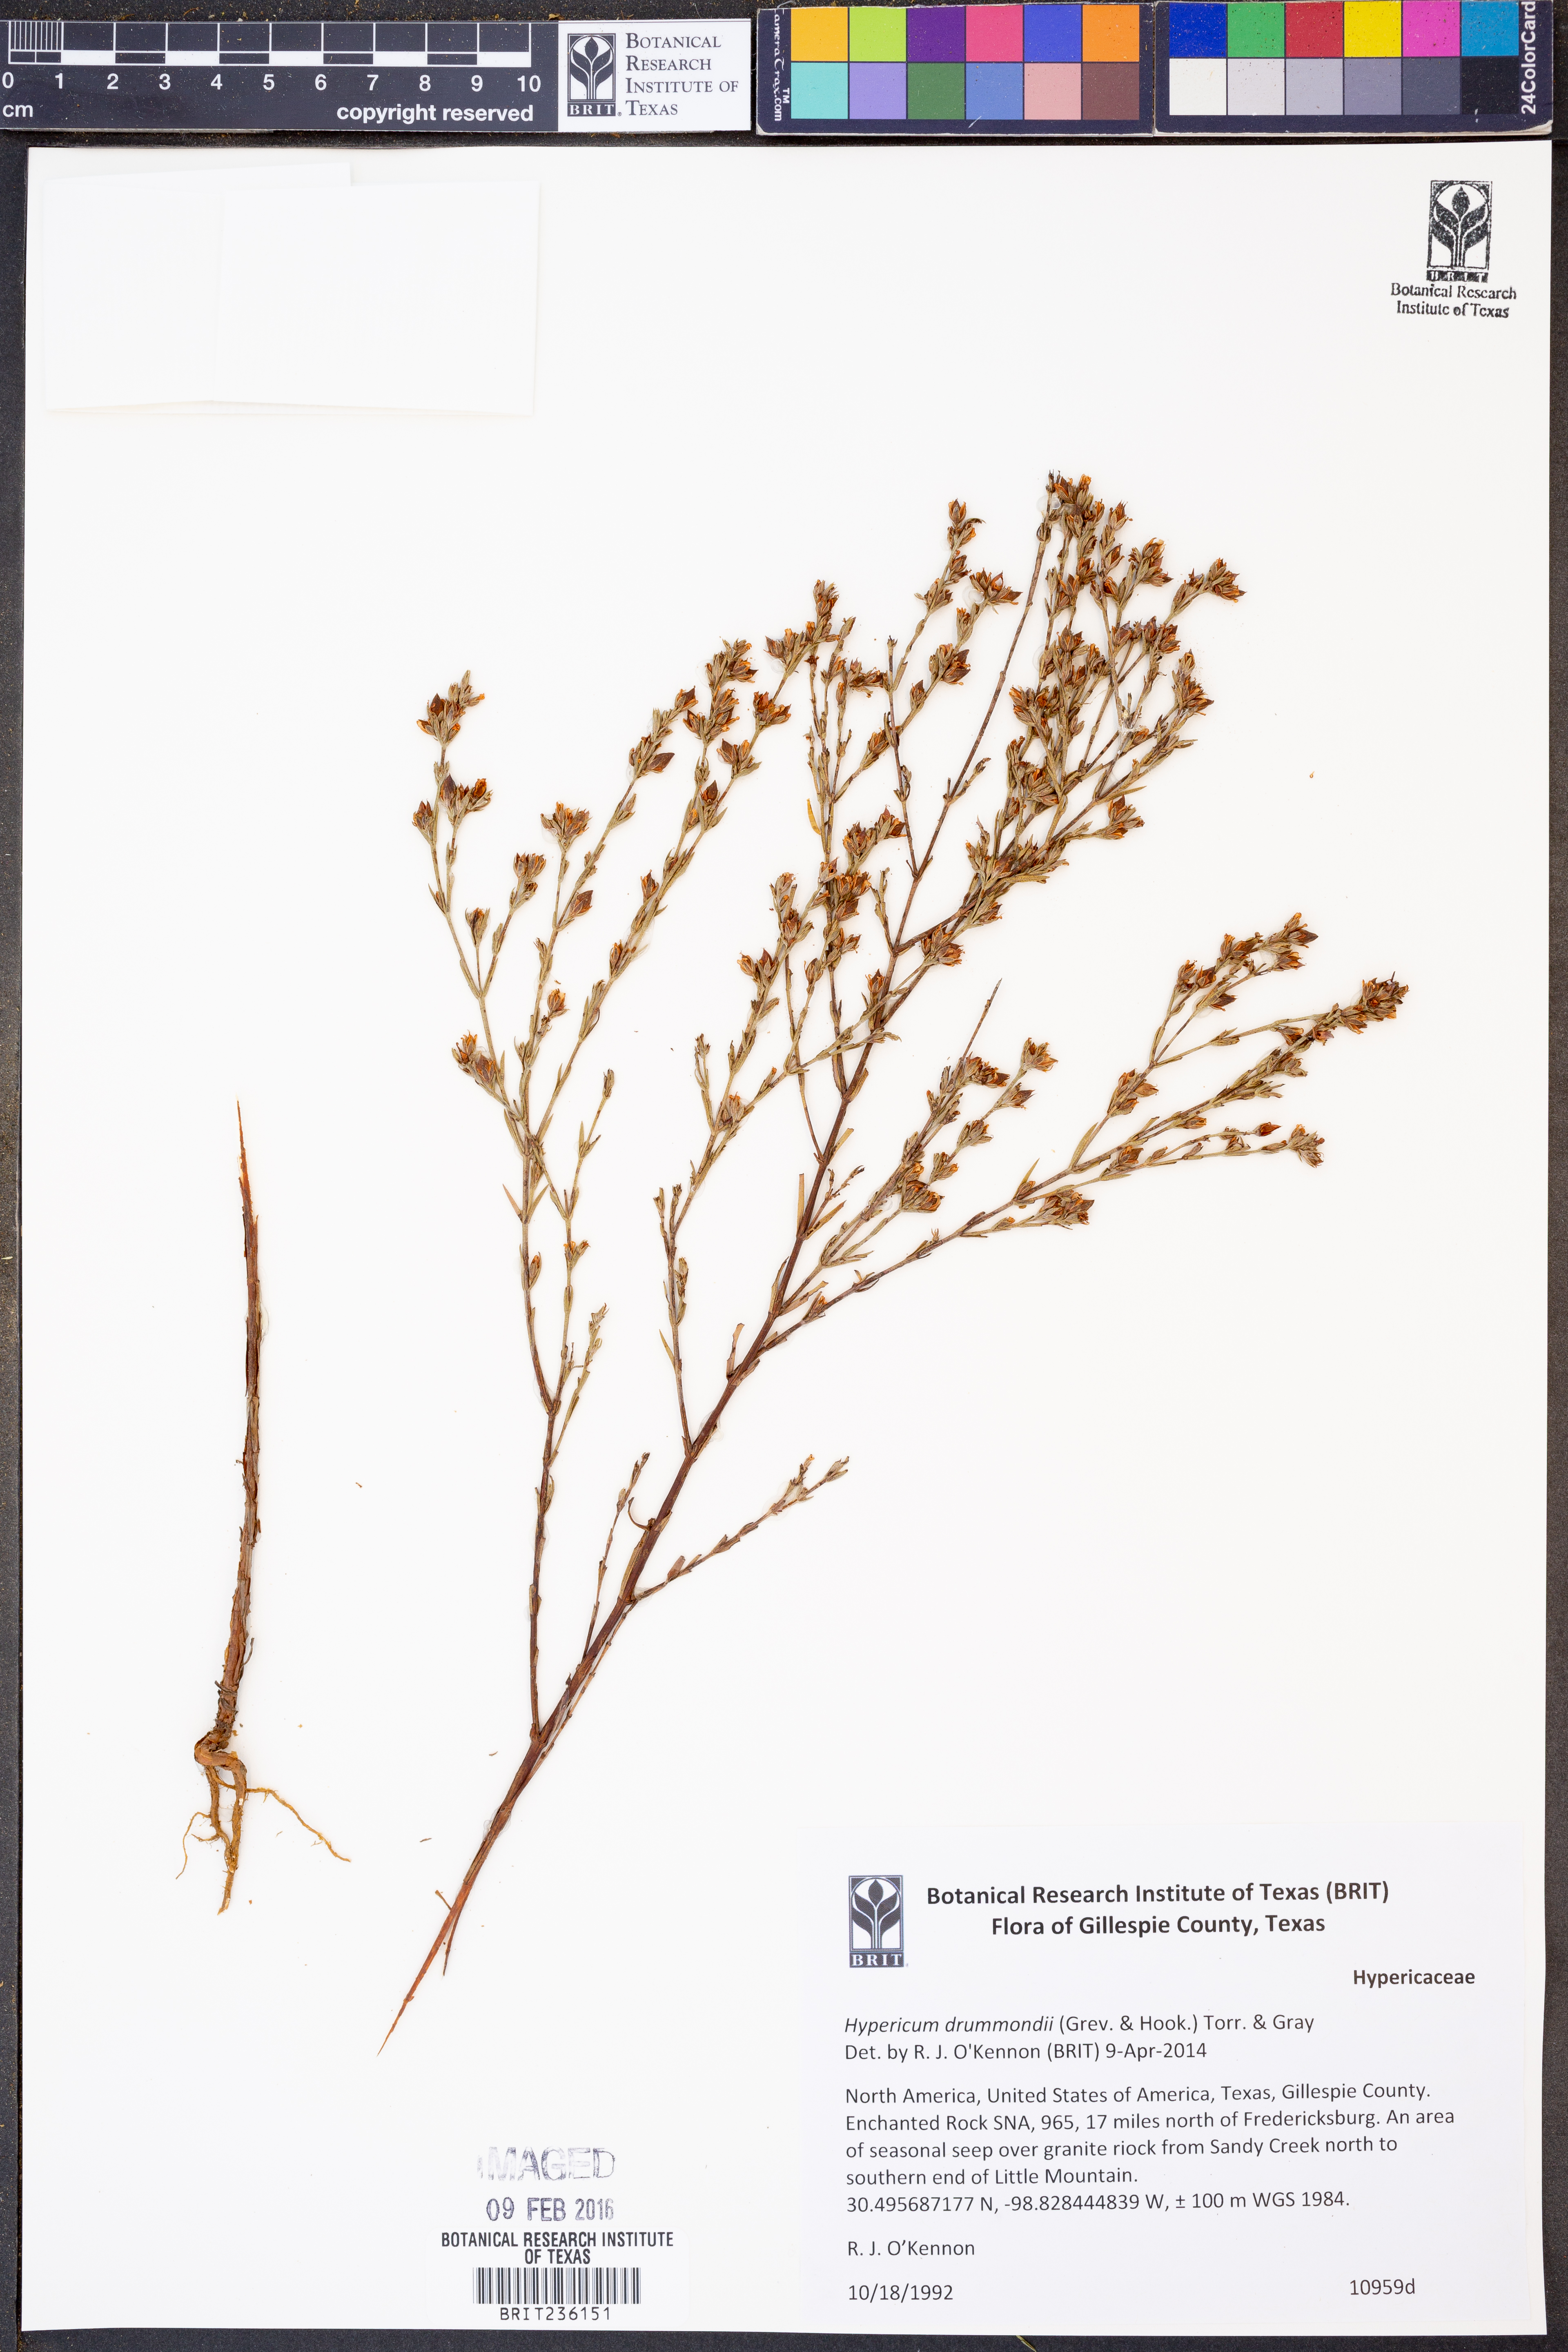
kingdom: Plantae
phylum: Tracheophyta
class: Magnoliopsida
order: Malpighiales
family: Hypericaceae
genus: Hypericum
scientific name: Hypericum drummondii
